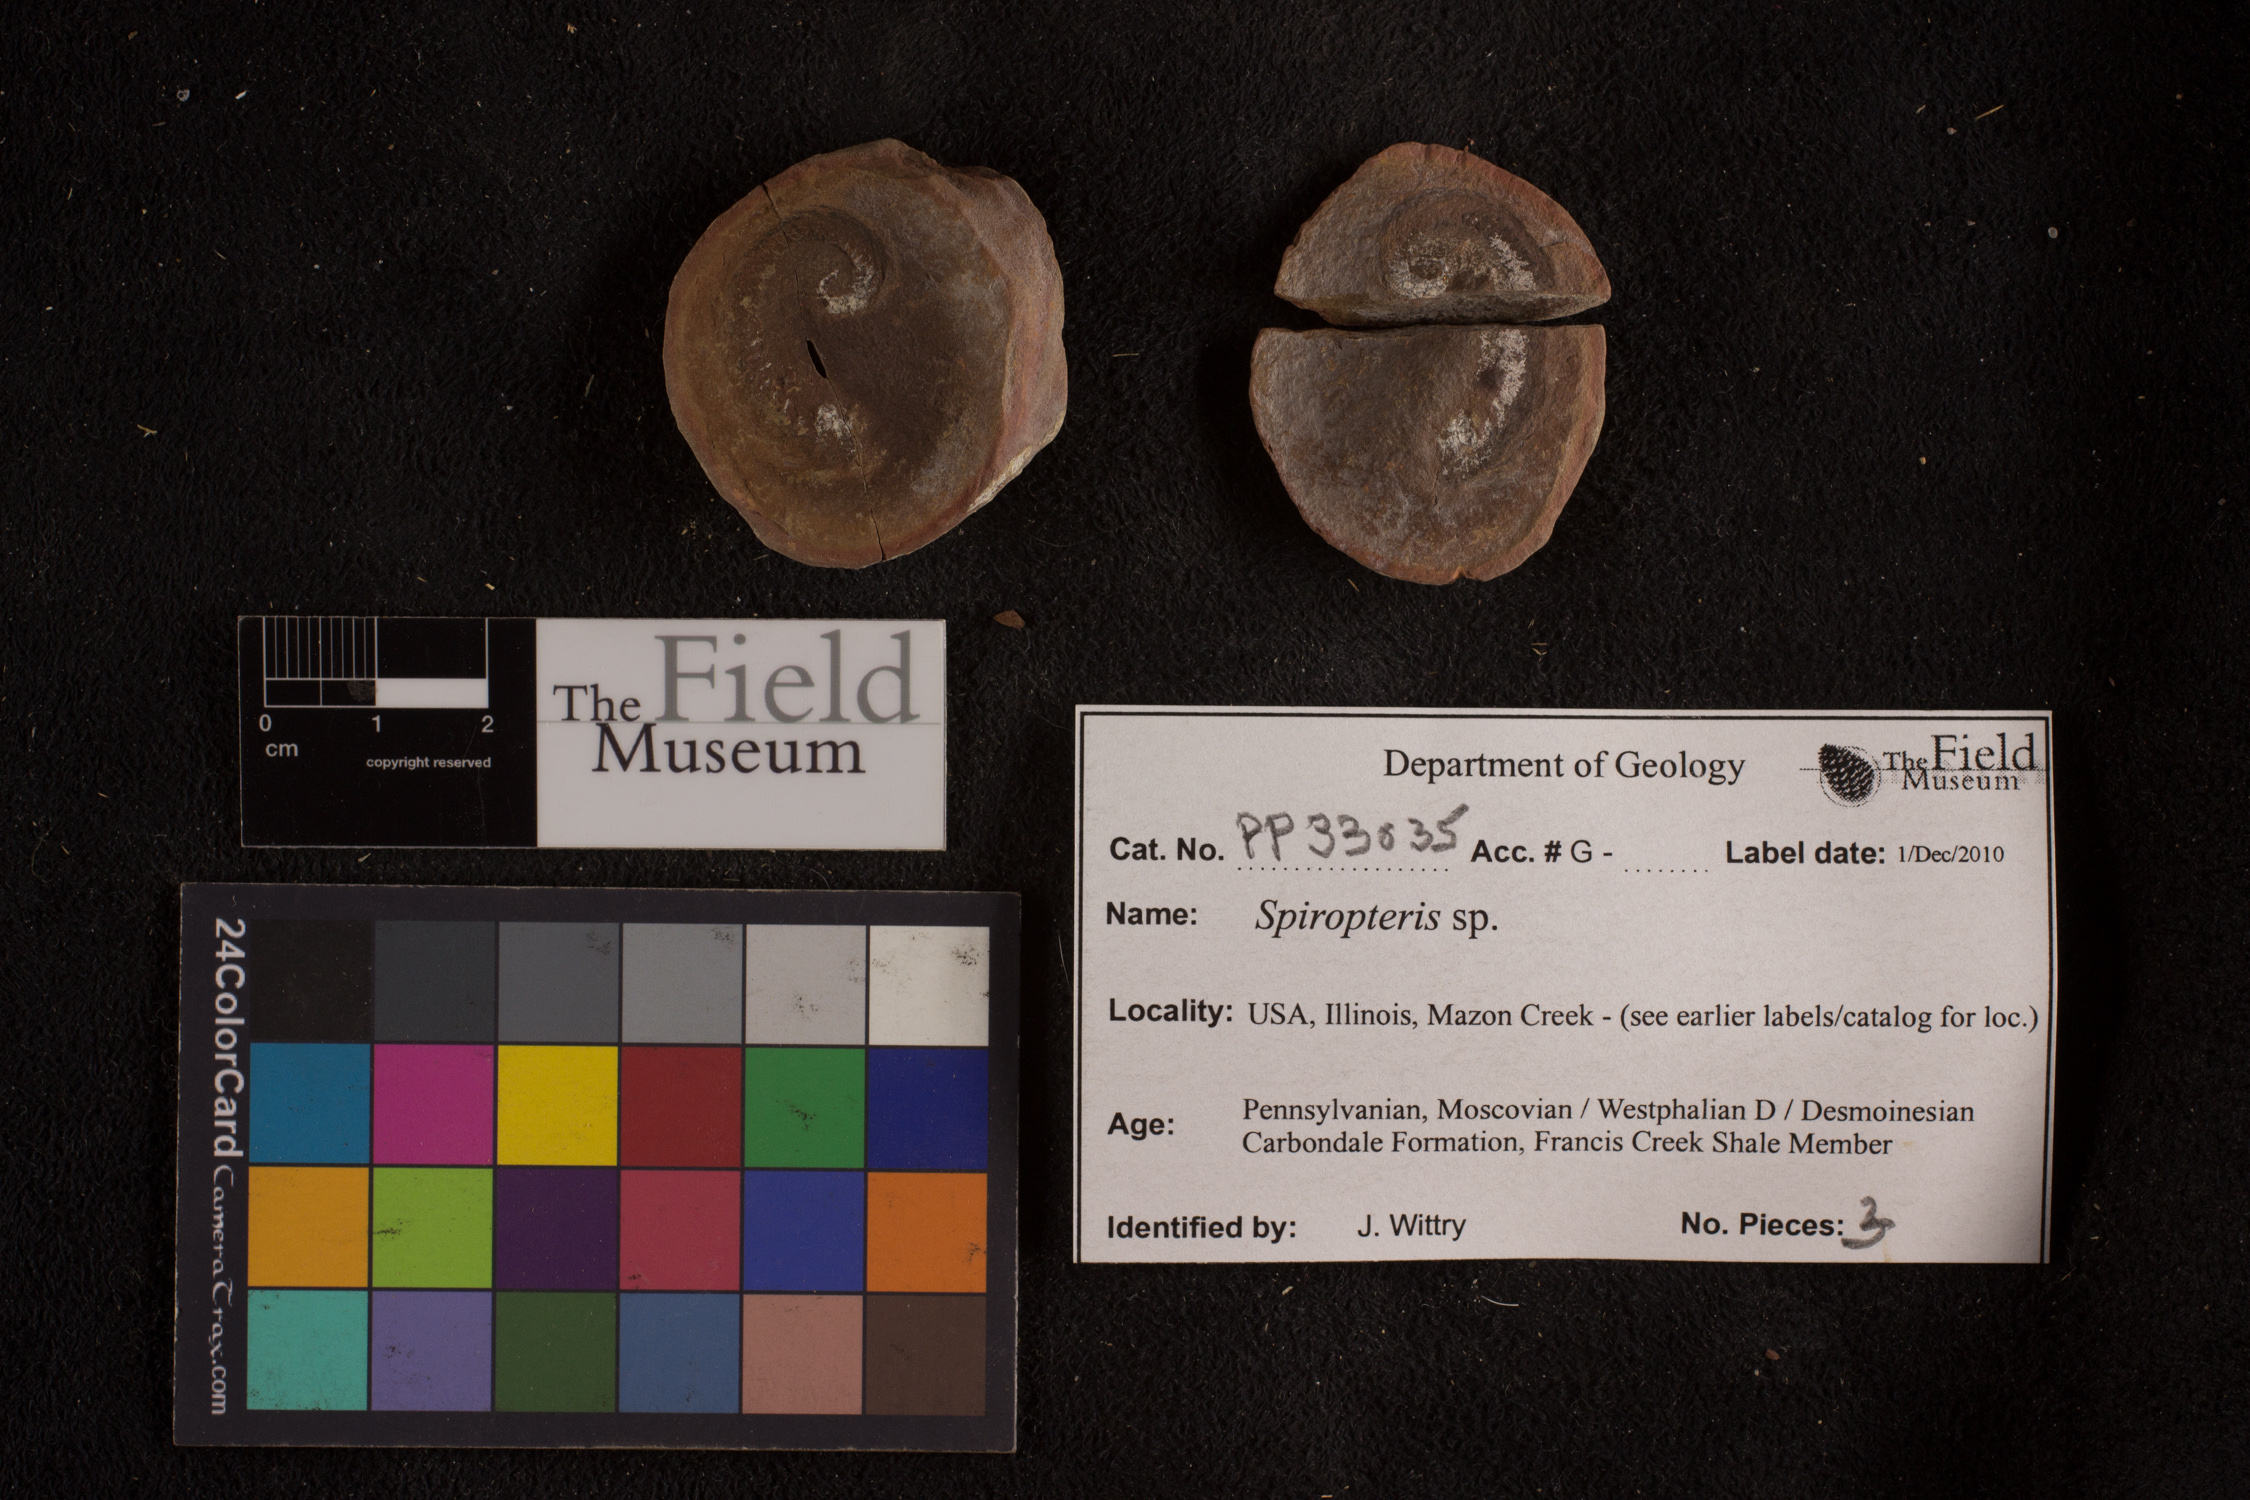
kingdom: Plantae
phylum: Tracheophyta
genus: Spiropteris
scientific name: Spiropteris
